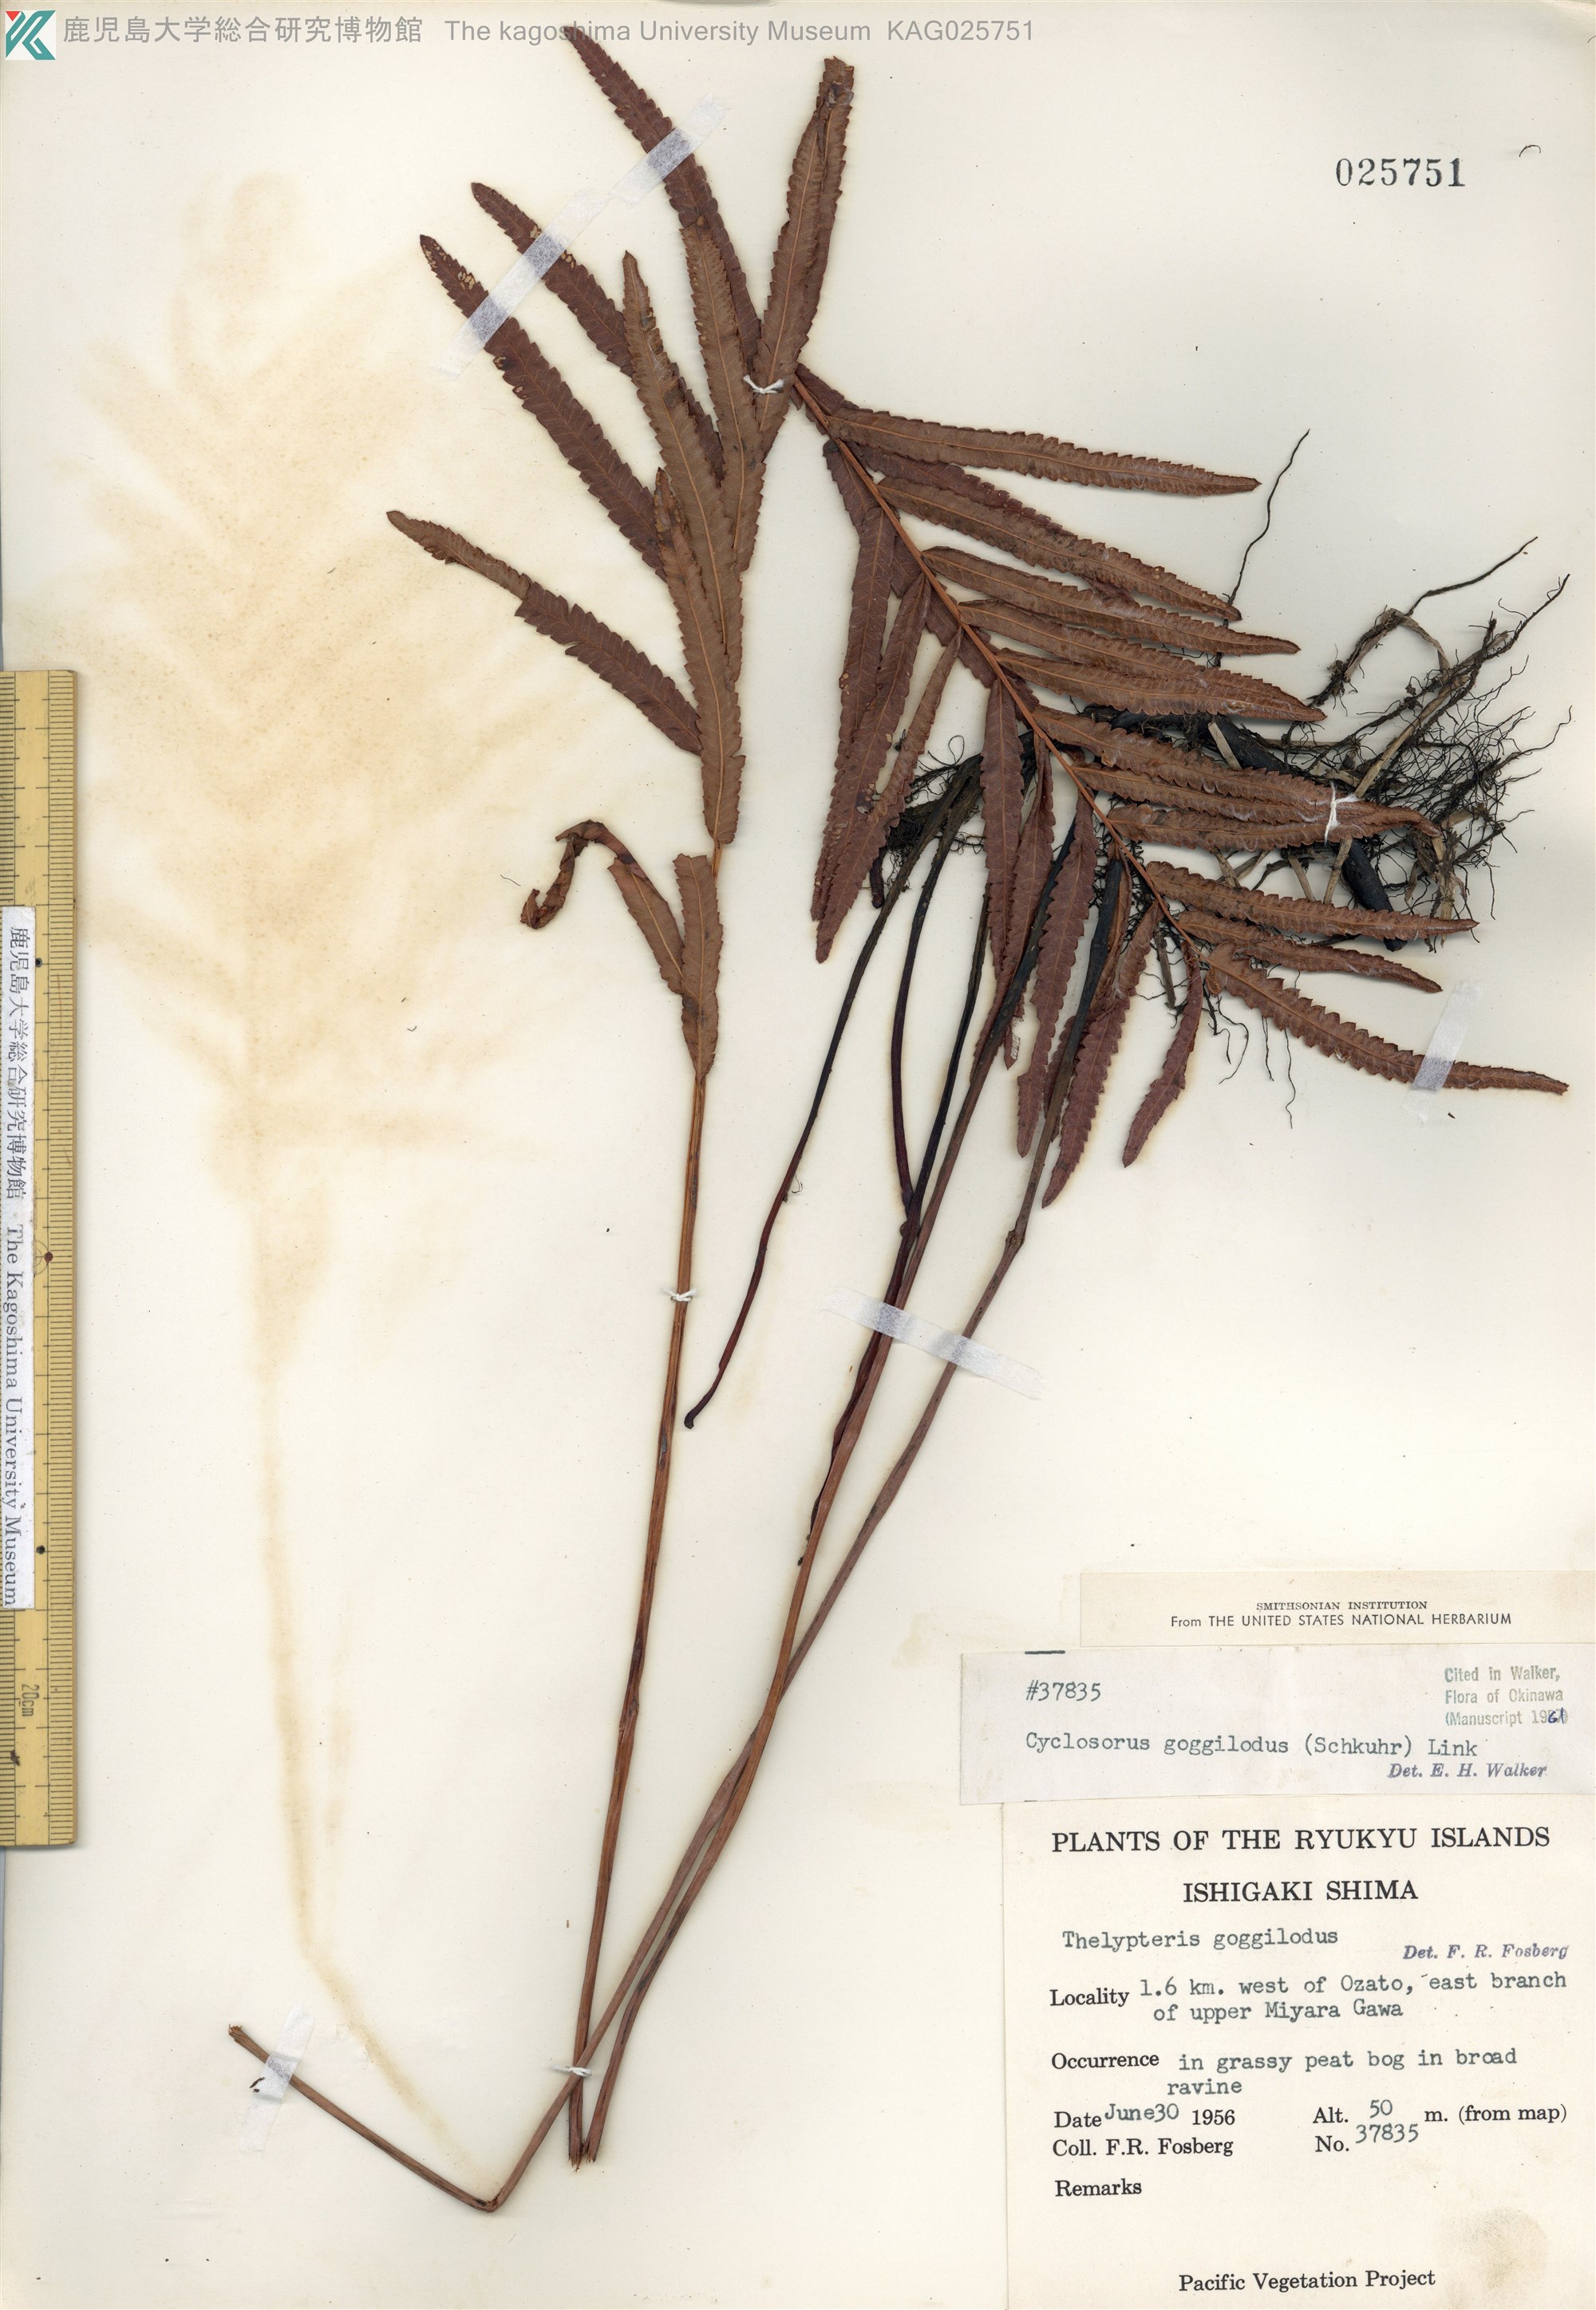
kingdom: Plantae
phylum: Tracheophyta
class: Polypodiopsida
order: Polypodiales
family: Thelypteridaceae
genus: Cyclosorus
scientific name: Cyclosorus interruptus
